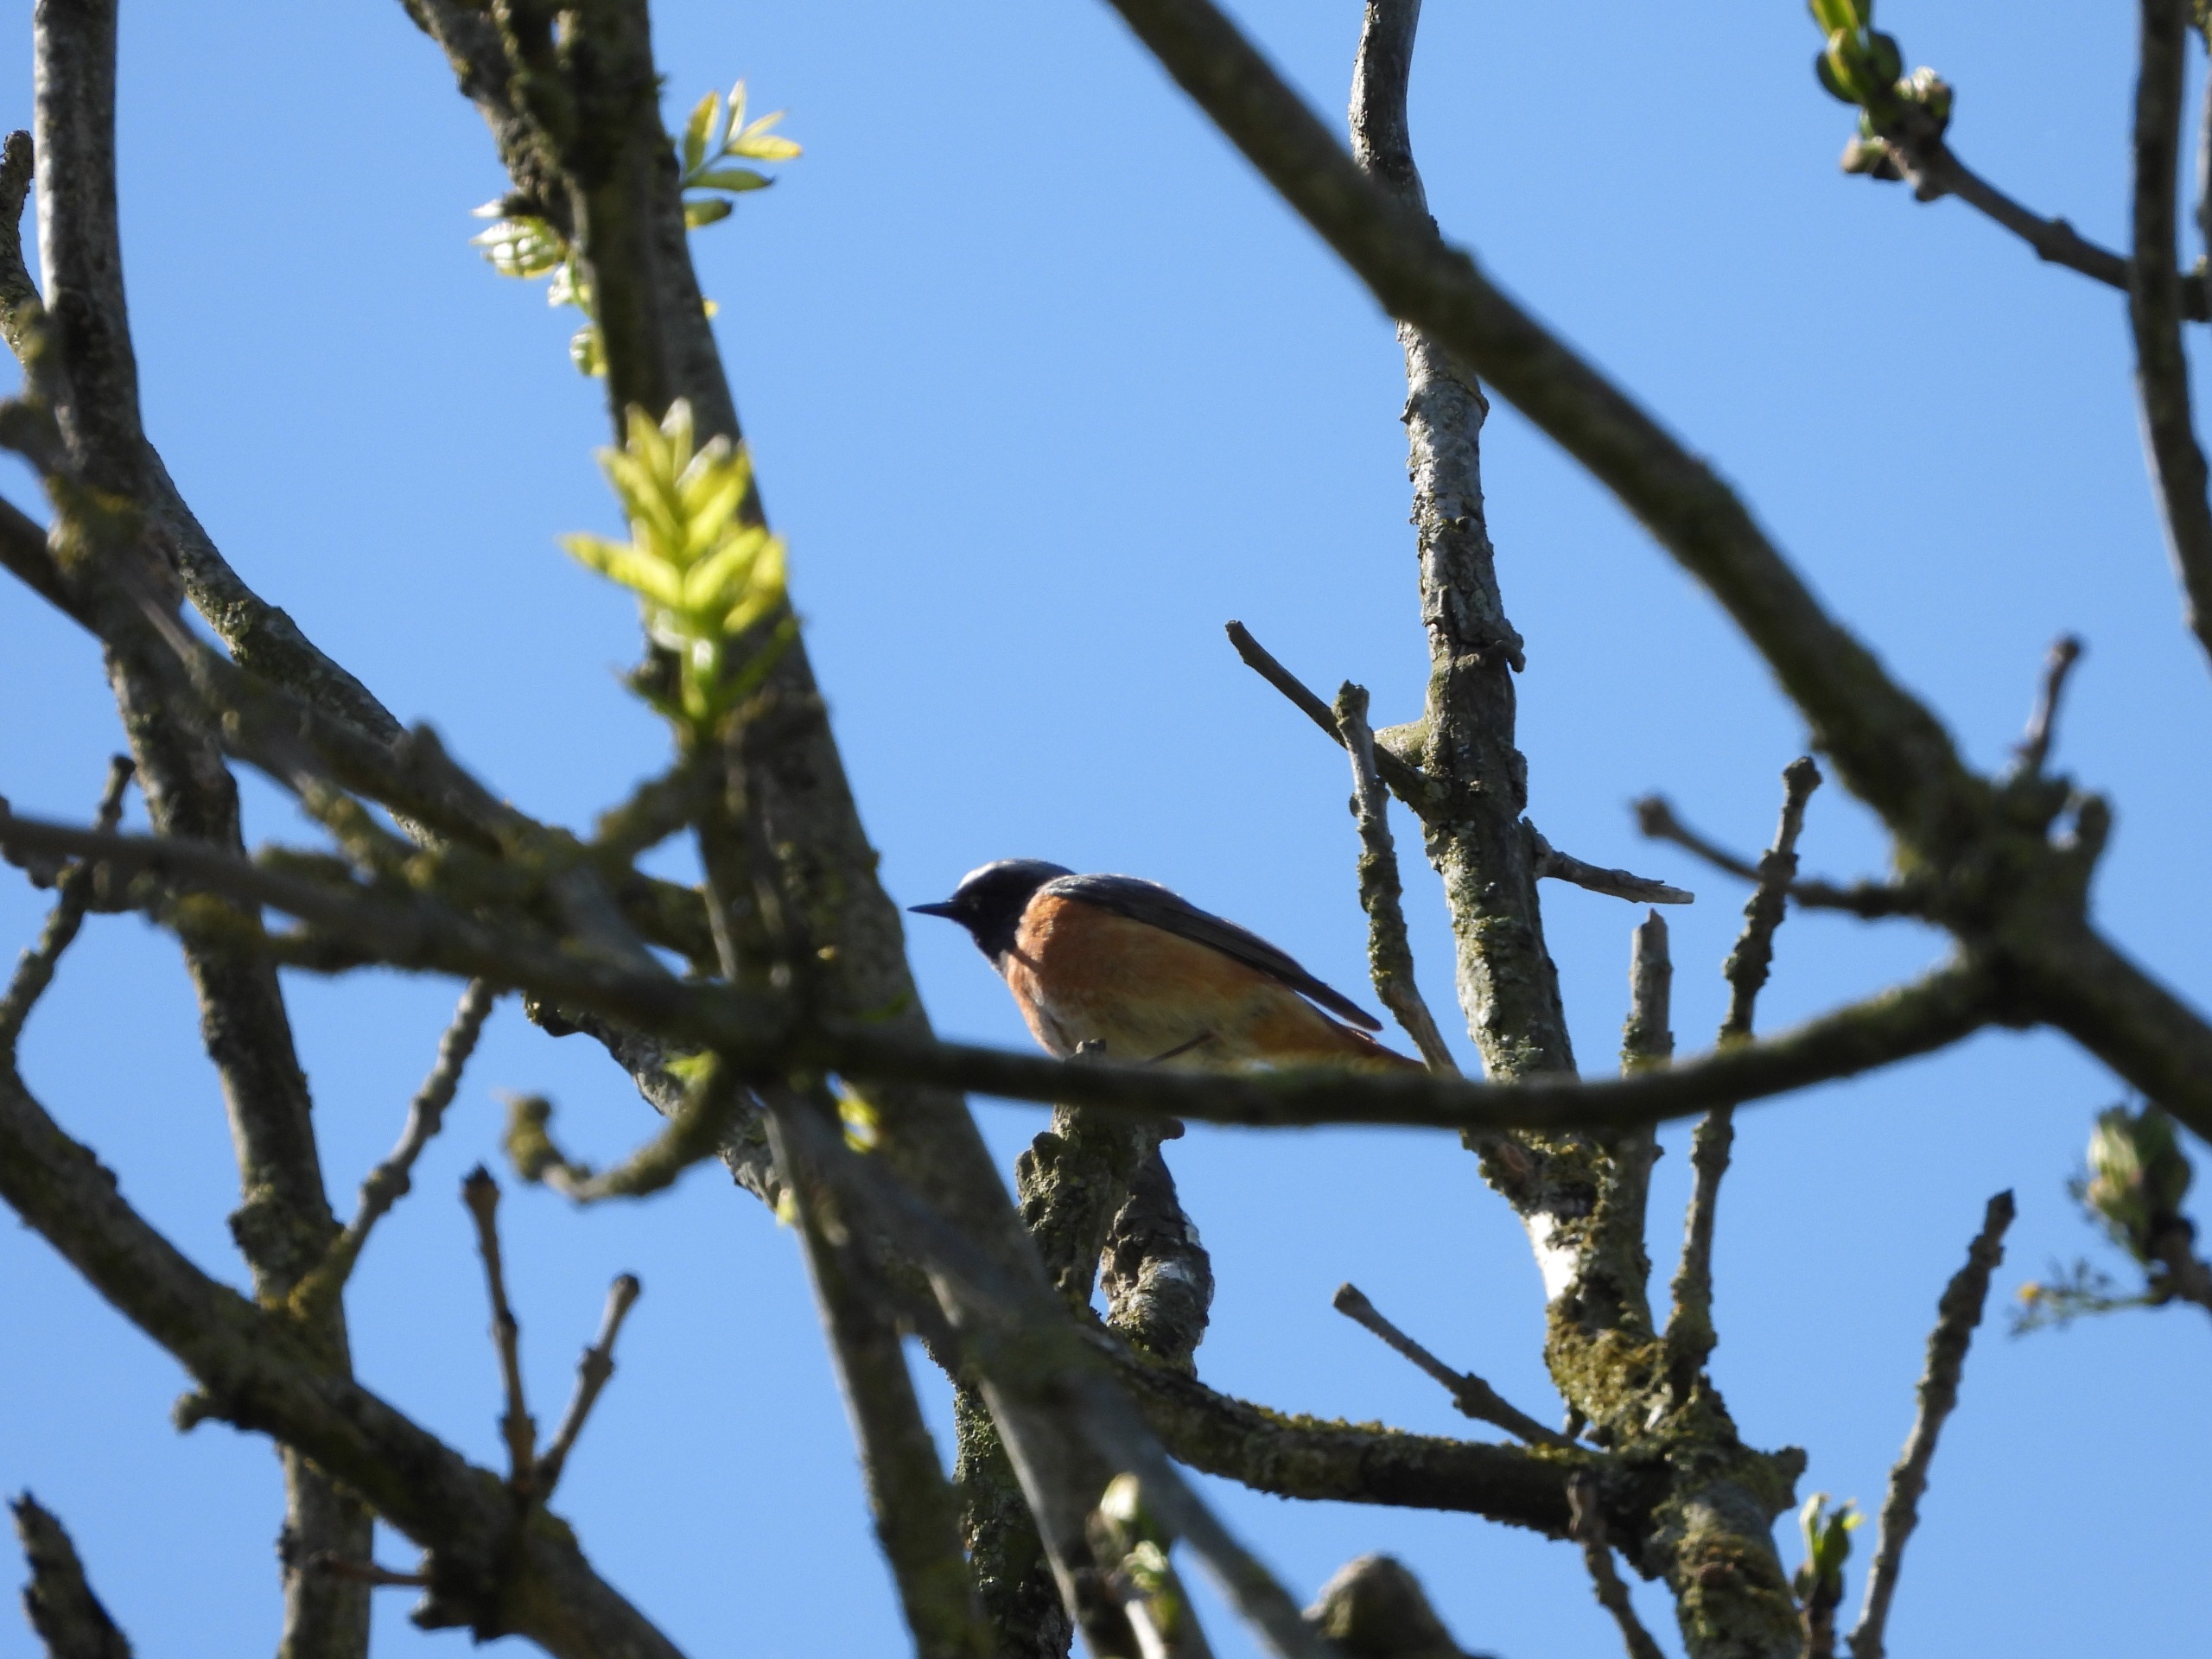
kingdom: Animalia
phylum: Chordata
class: Aves
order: Passeriformes
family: Muscicapidae
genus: Phoenicurus
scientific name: Phoenicurus phoenicurus
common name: Rødstjert
